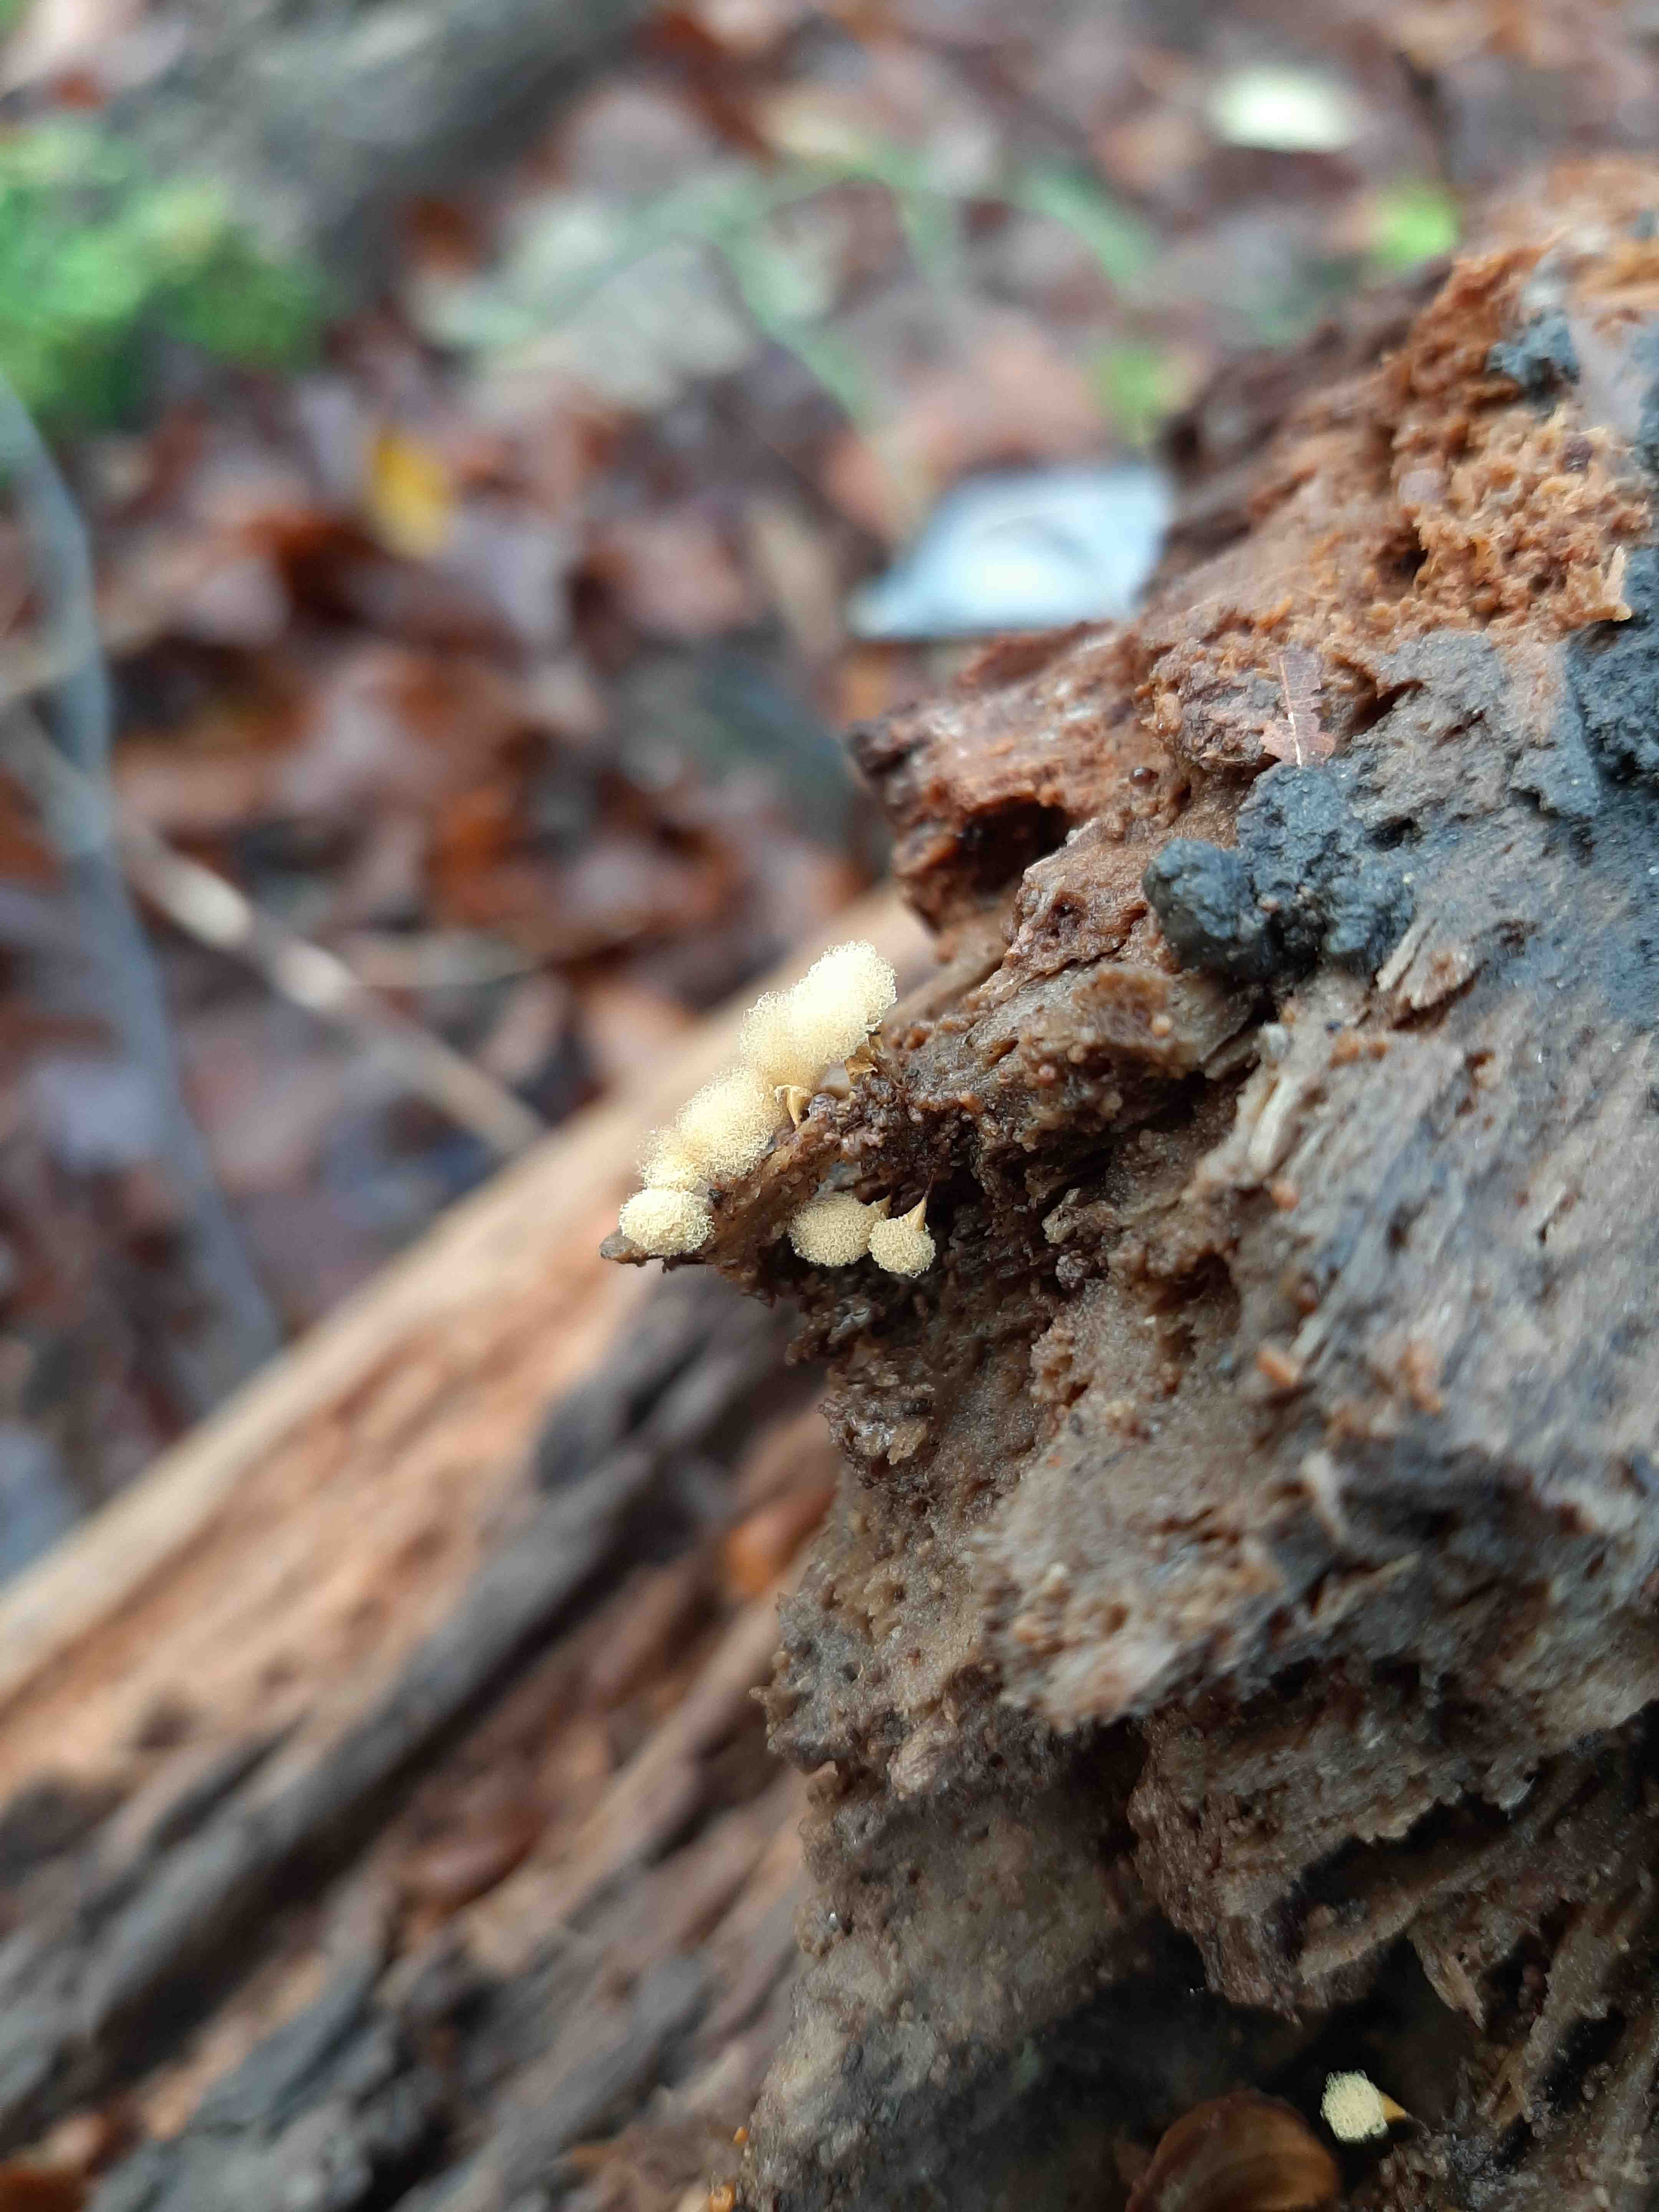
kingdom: Protozoa
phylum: Mycetozoa
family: Trichiidae
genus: Hemitrichia
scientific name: Hemitrichia
